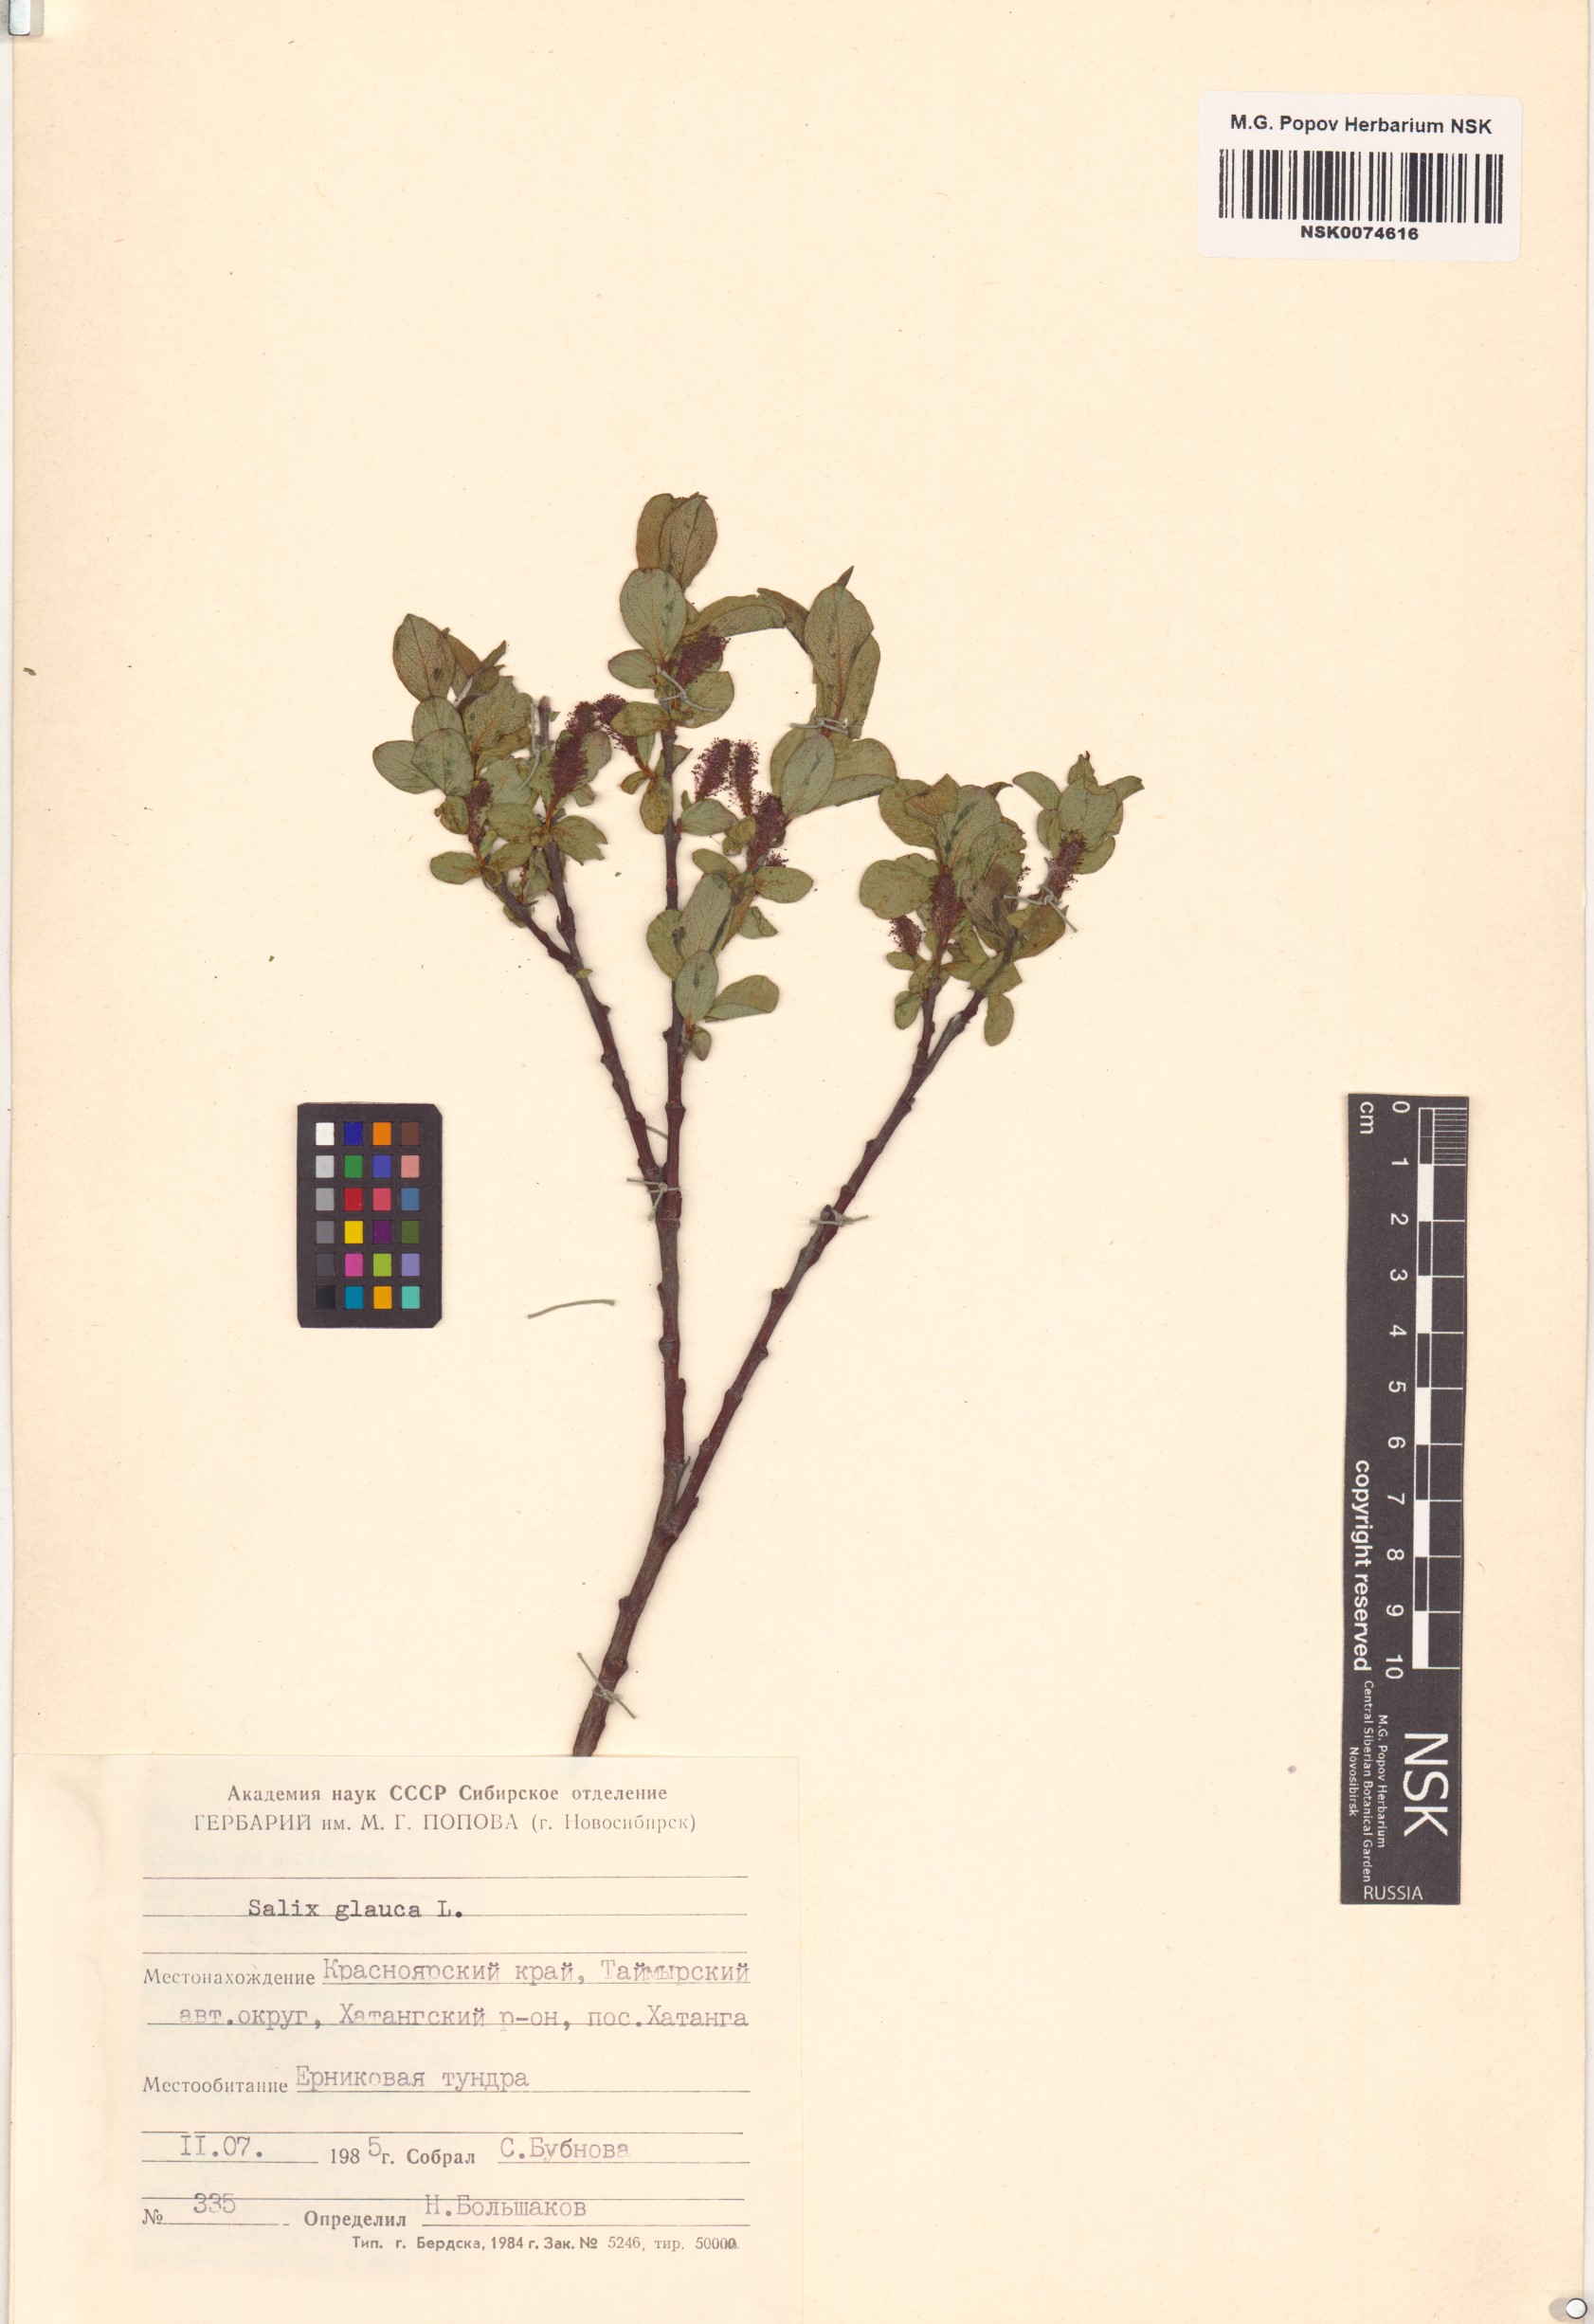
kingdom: Plantae
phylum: Tracheophyta
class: Magnoliopsida
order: Malpighiales
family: Salicaceae
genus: Salix
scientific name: Salix glauca
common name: Glaucous willow
